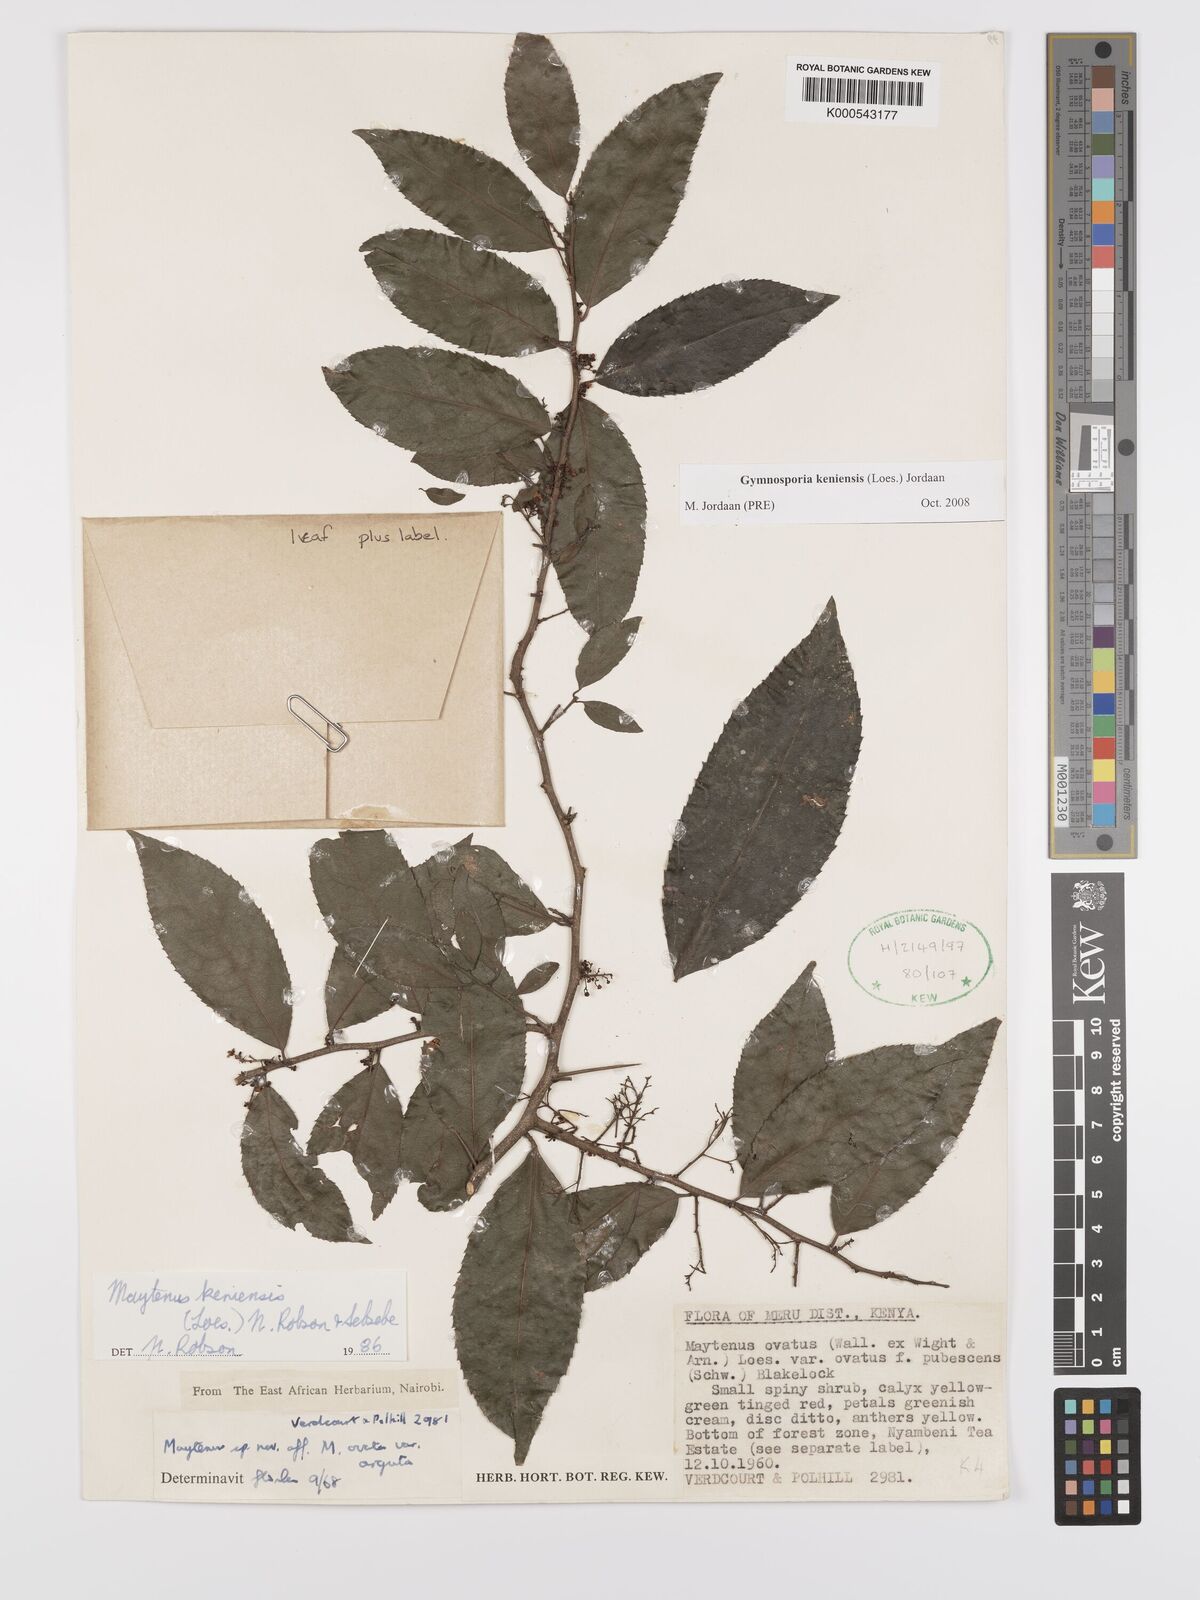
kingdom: Plantae
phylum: Tracheophyta
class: Magnoliopsida
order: Celastrales
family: Celastraceae
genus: Gymnosporia
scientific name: Gymnosporia keniensis
